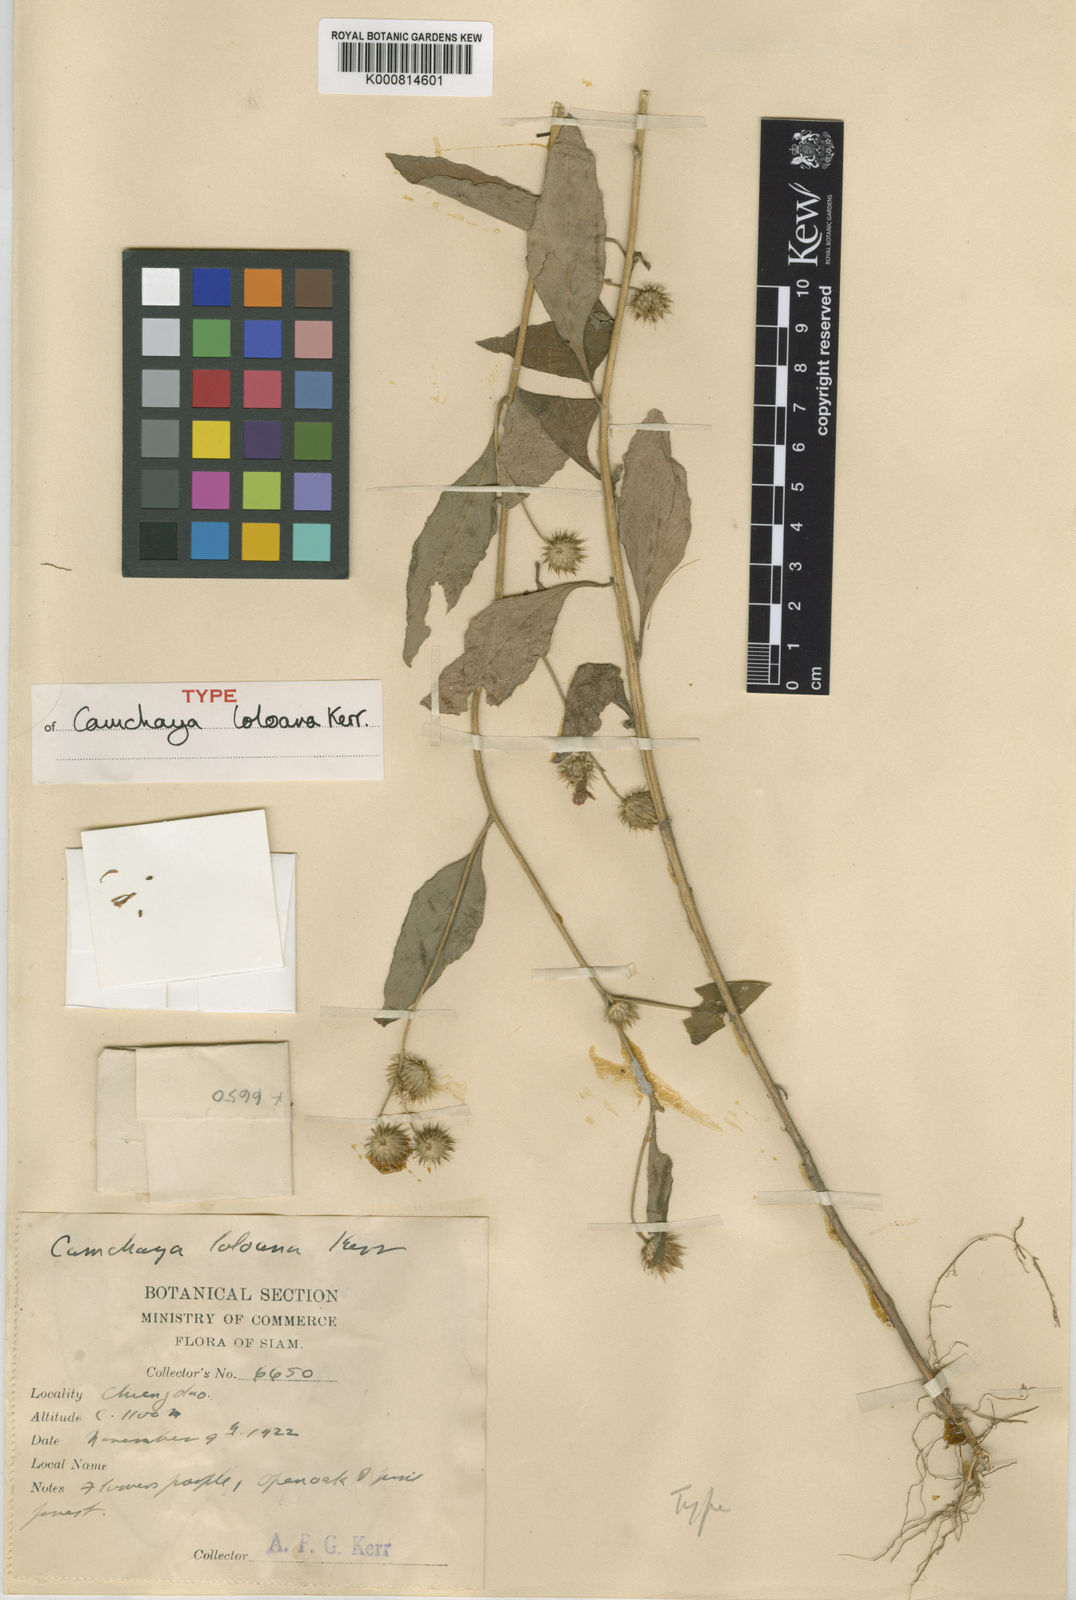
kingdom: Plantae
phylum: Tracheophyta
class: Magnoliopsida
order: Asterales
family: Asteraceae
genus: Camchaya
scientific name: Camchaya
